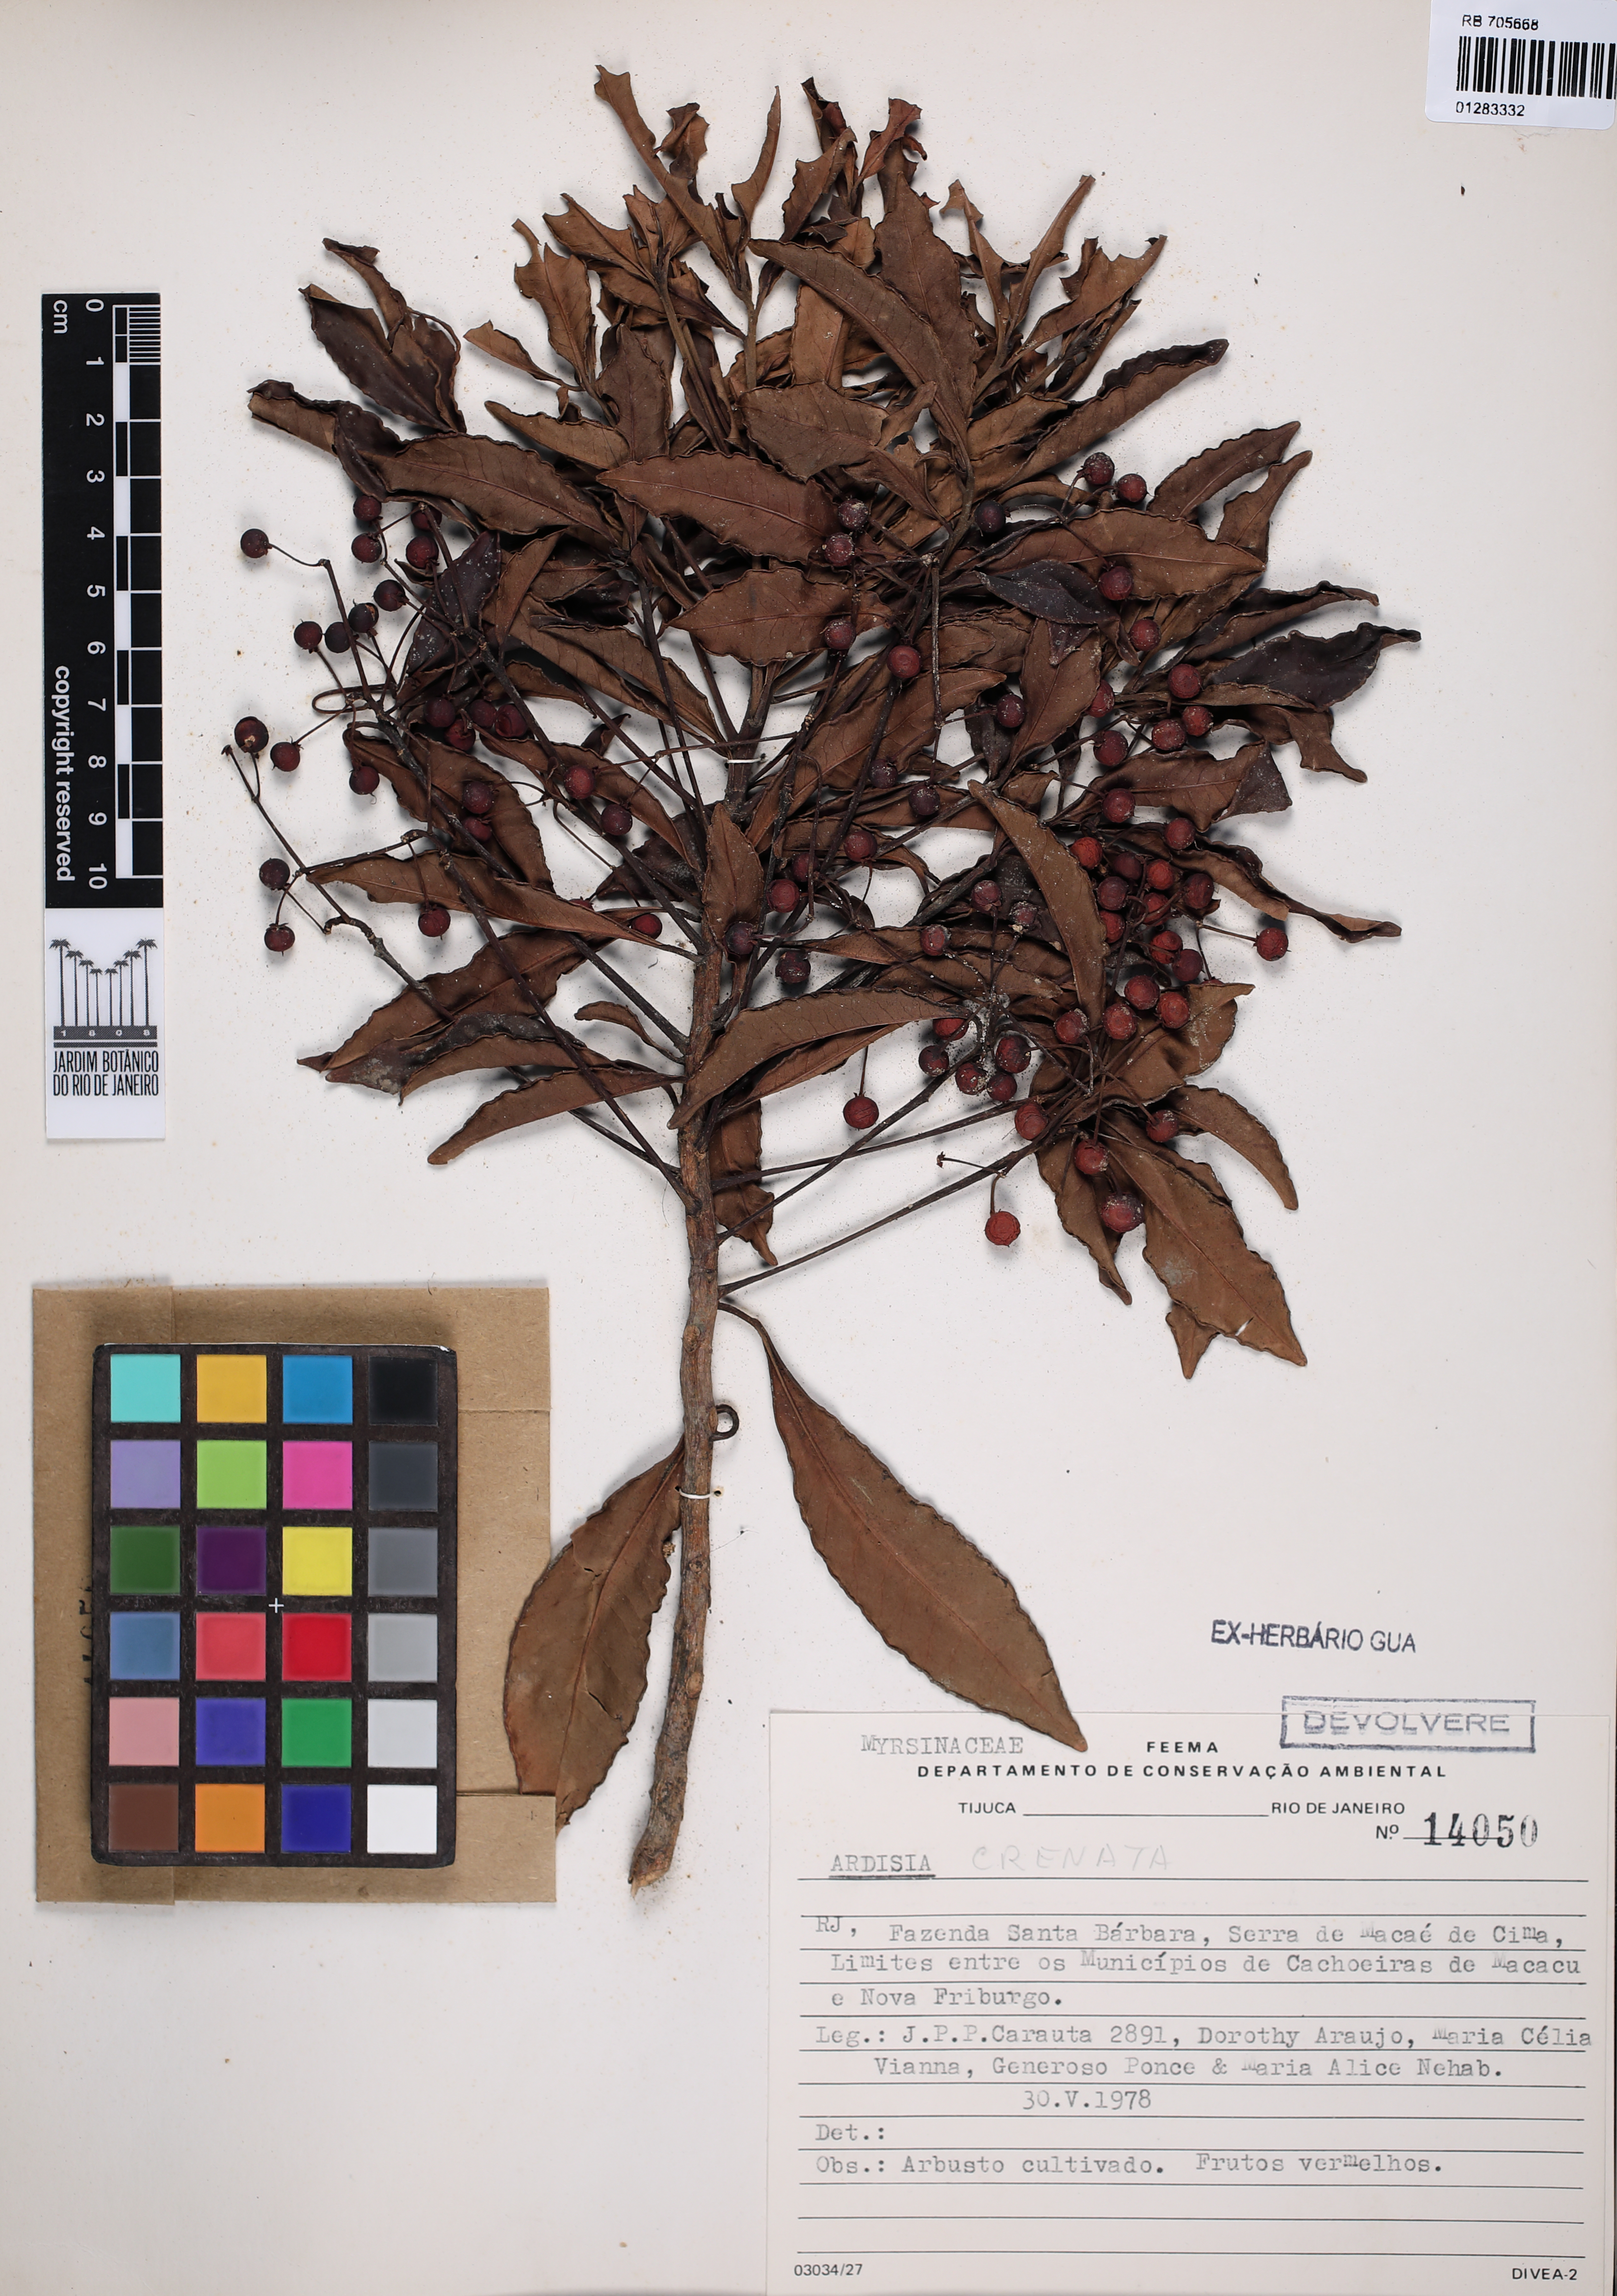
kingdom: Plantae
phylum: Tracheophyta
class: Magnoliopsida
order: Ericales
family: Primulaceae
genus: Ardisia
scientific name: Ardisia crenata
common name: Hen's eyes
